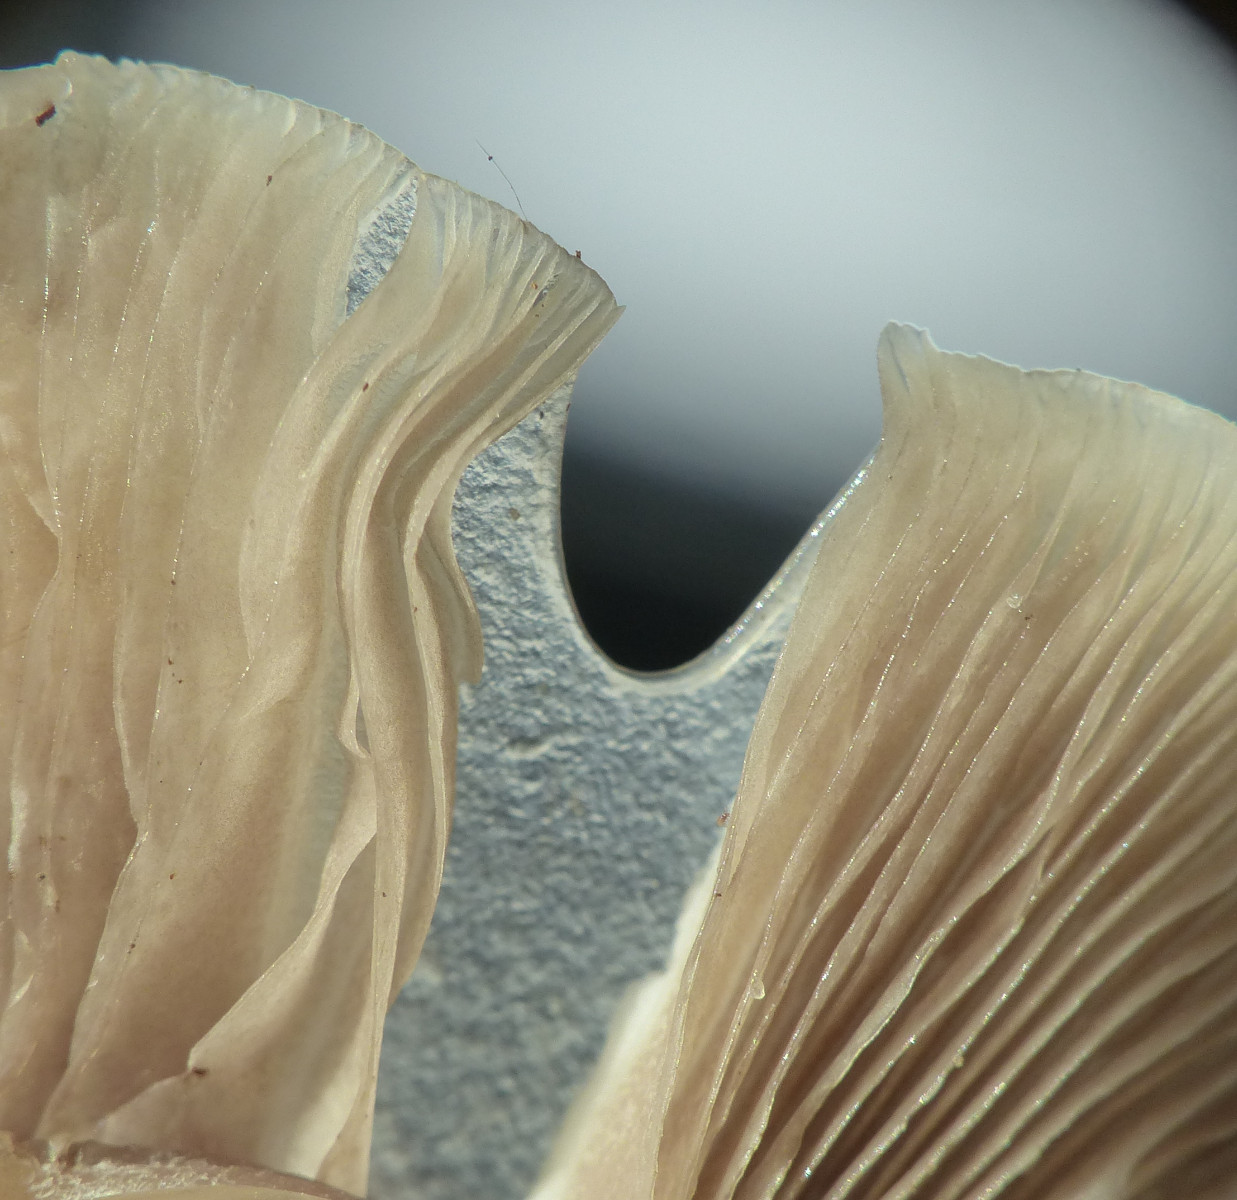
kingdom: Fungi
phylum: Basidiomycota
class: Agaricomycetes
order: Agaricales
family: Crepidotaceae
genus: Crepidotus
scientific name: Crepidotus mollis
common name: blød muslingesvamp
